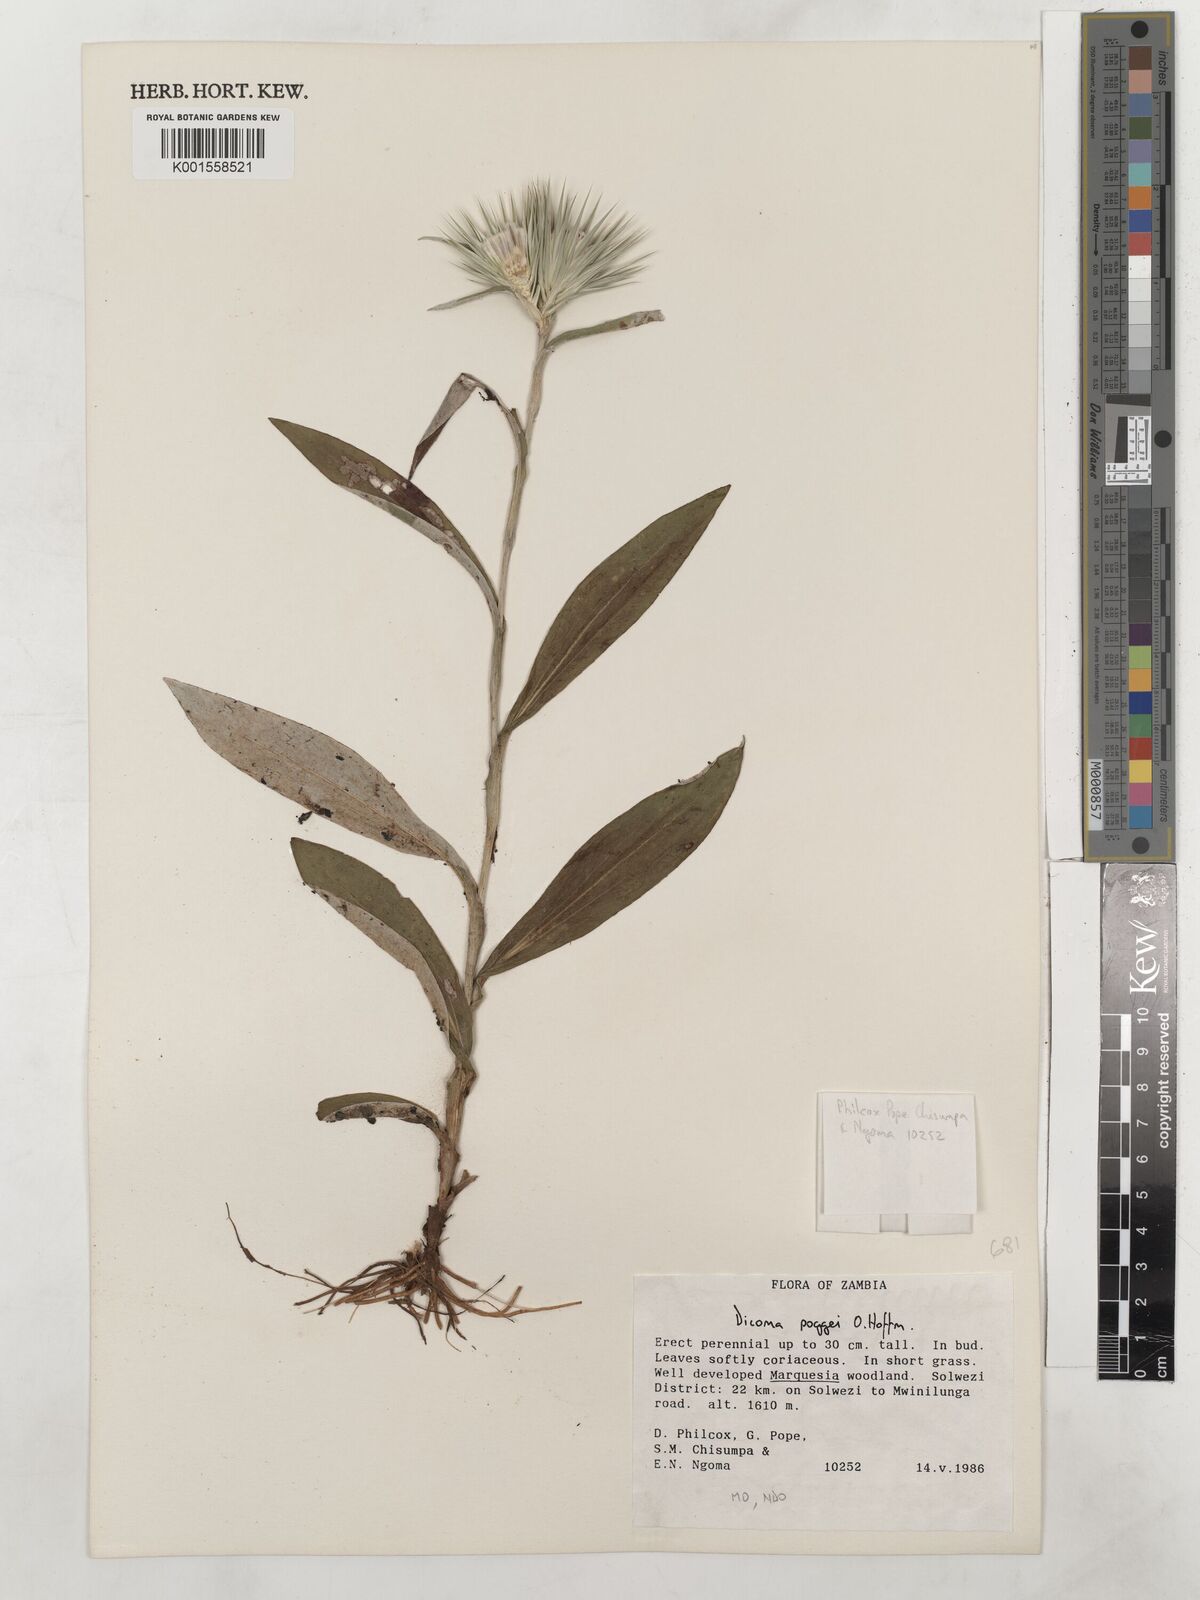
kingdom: Plantae
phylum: Tracheophyta
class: Magnoliopsida
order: Asterales
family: Asteraceae
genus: Macledium
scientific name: Macledium poggei
